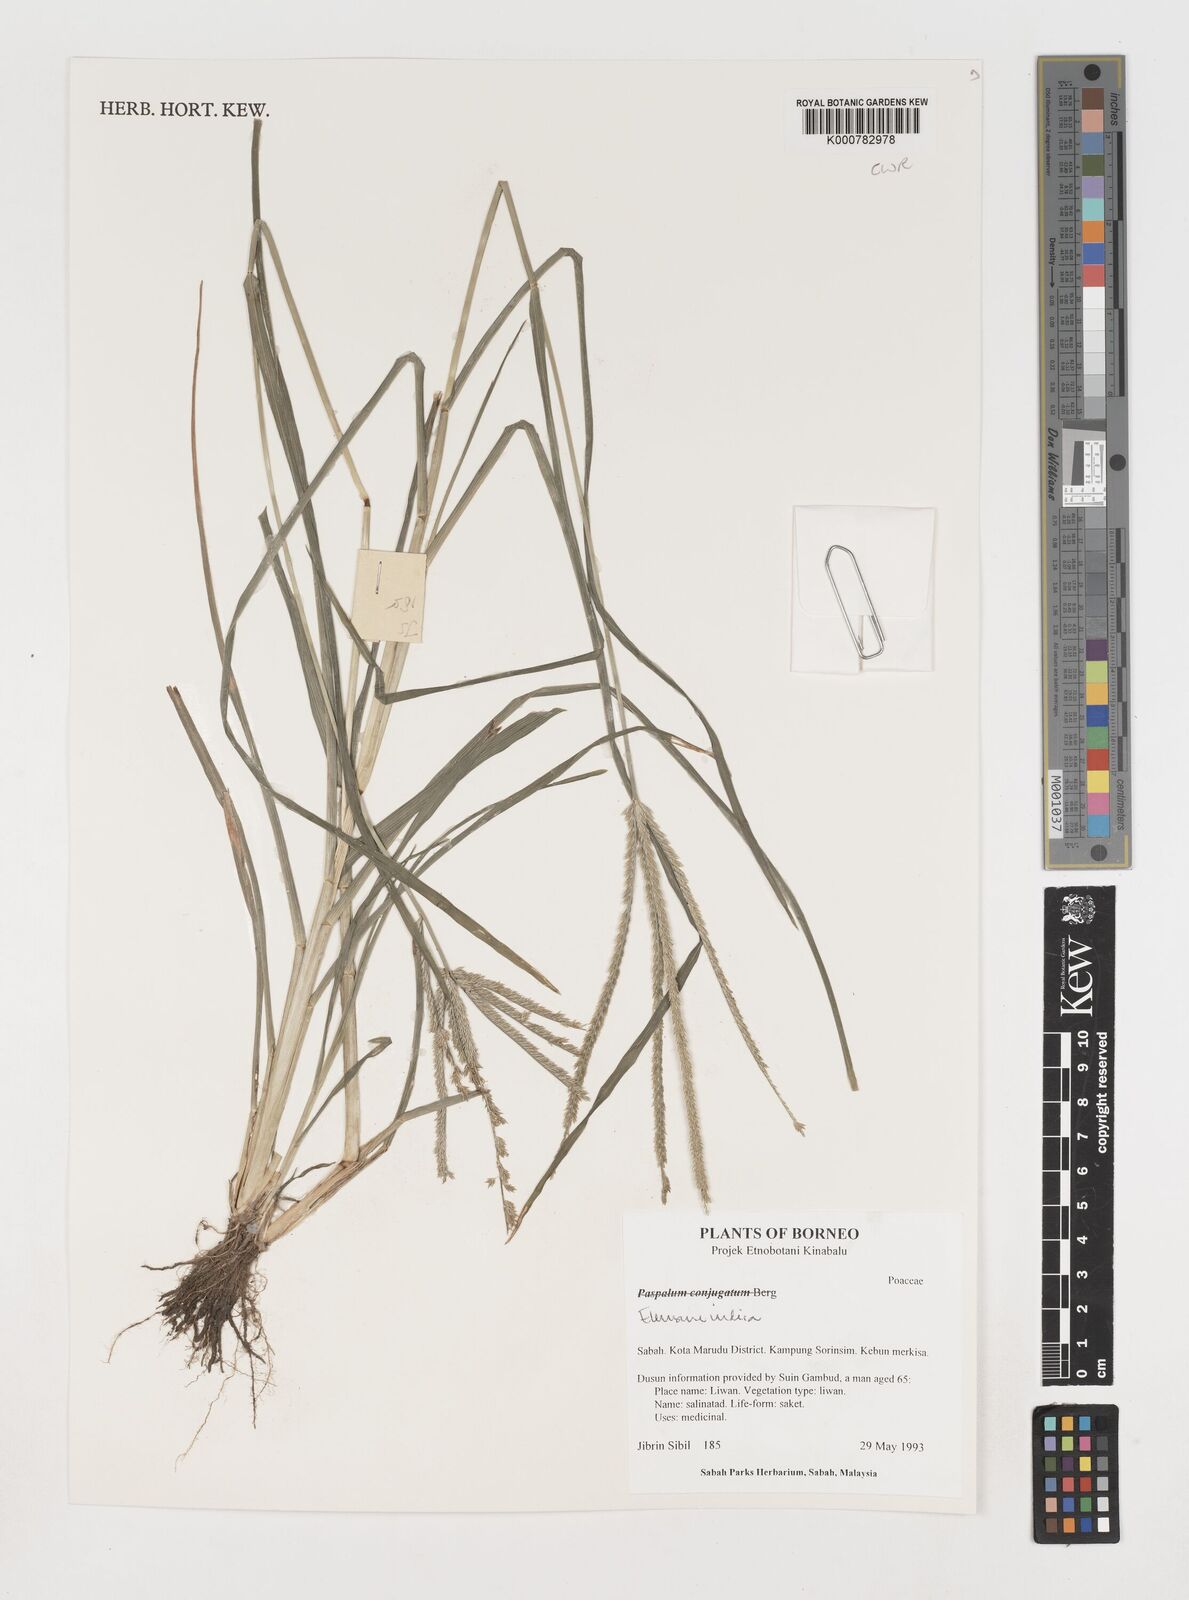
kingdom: Plantae
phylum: Tracheophyta
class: Liliopsida
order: Poales
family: Poaceae
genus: Eleusine
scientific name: Eleusine indica
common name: Yard-grass
